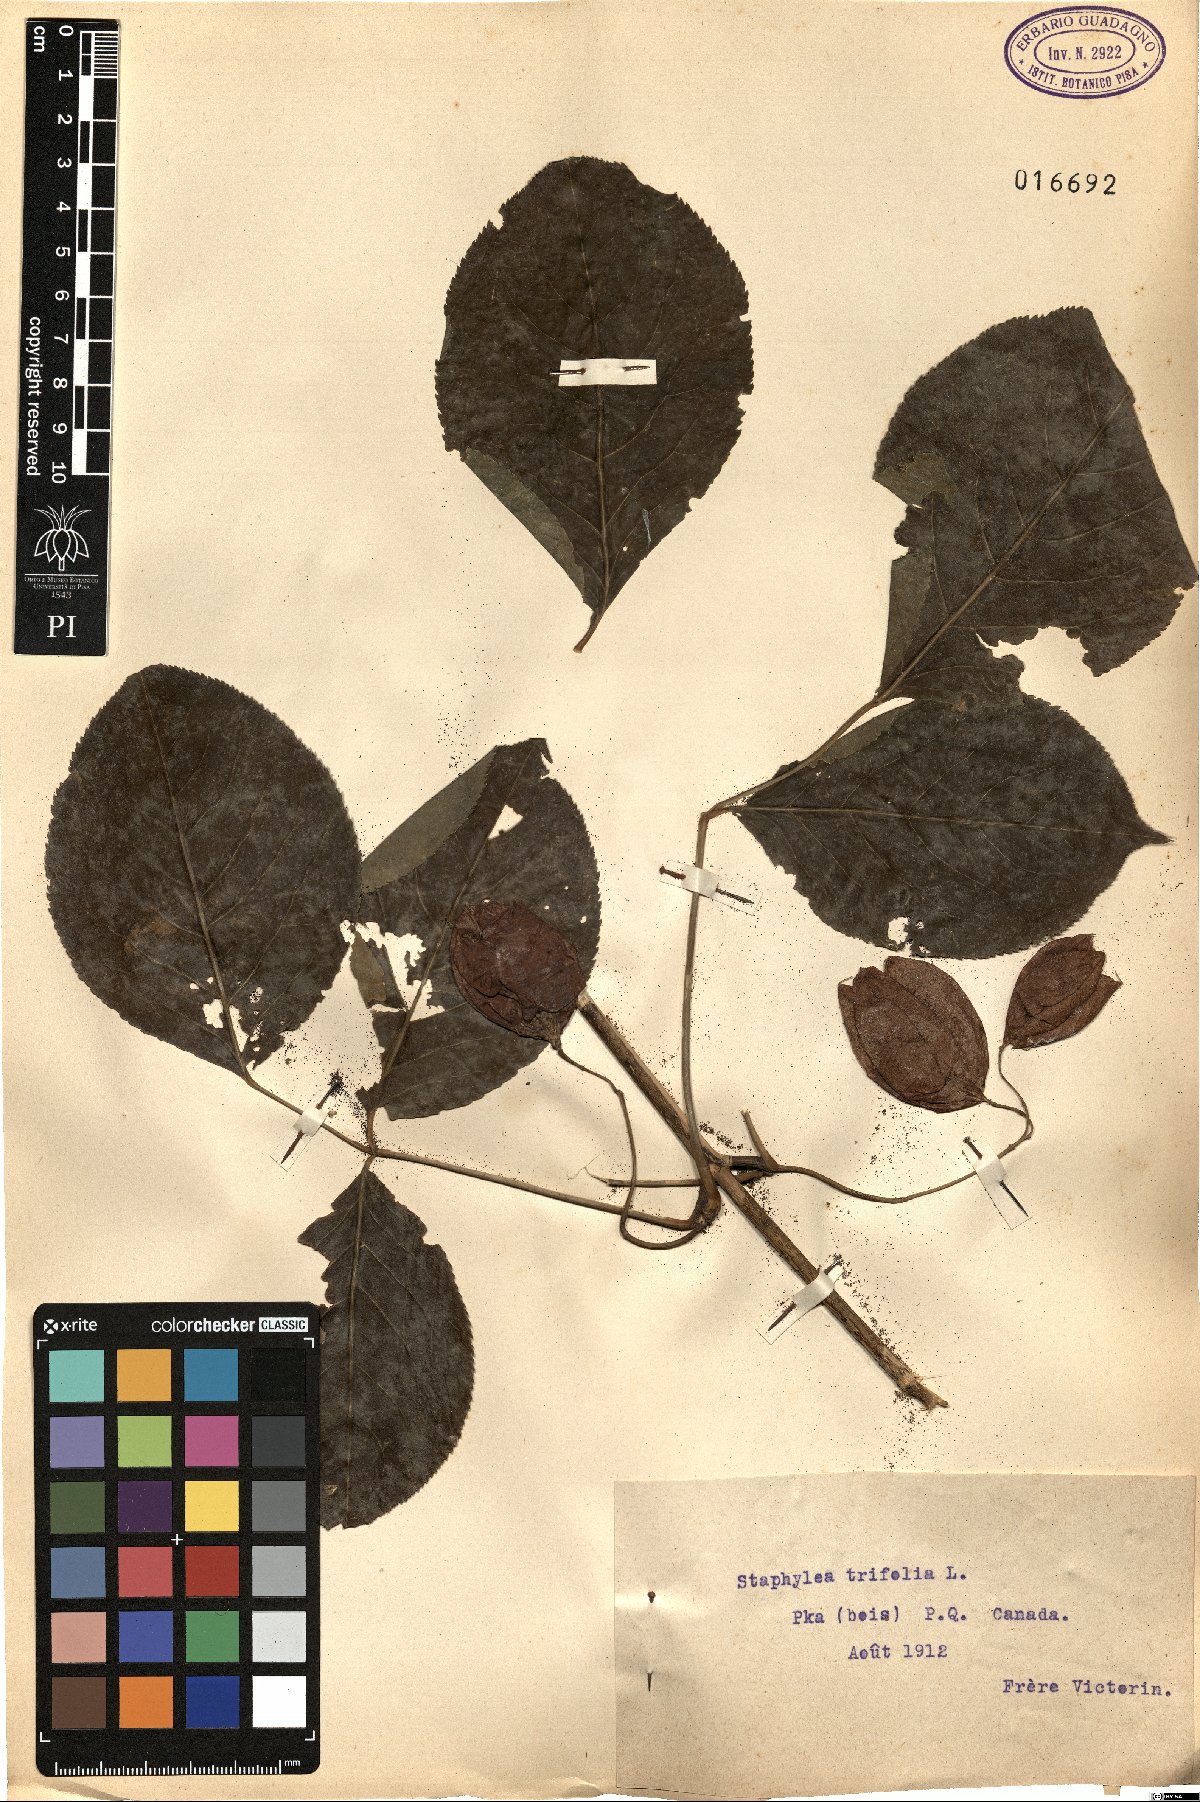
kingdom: Plantae
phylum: Tracheophyta
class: Magnoliopsida
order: Crossosomatales
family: Staphyleaceae
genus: Staphylea
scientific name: Staphylea trifolia
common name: American bladdernut
